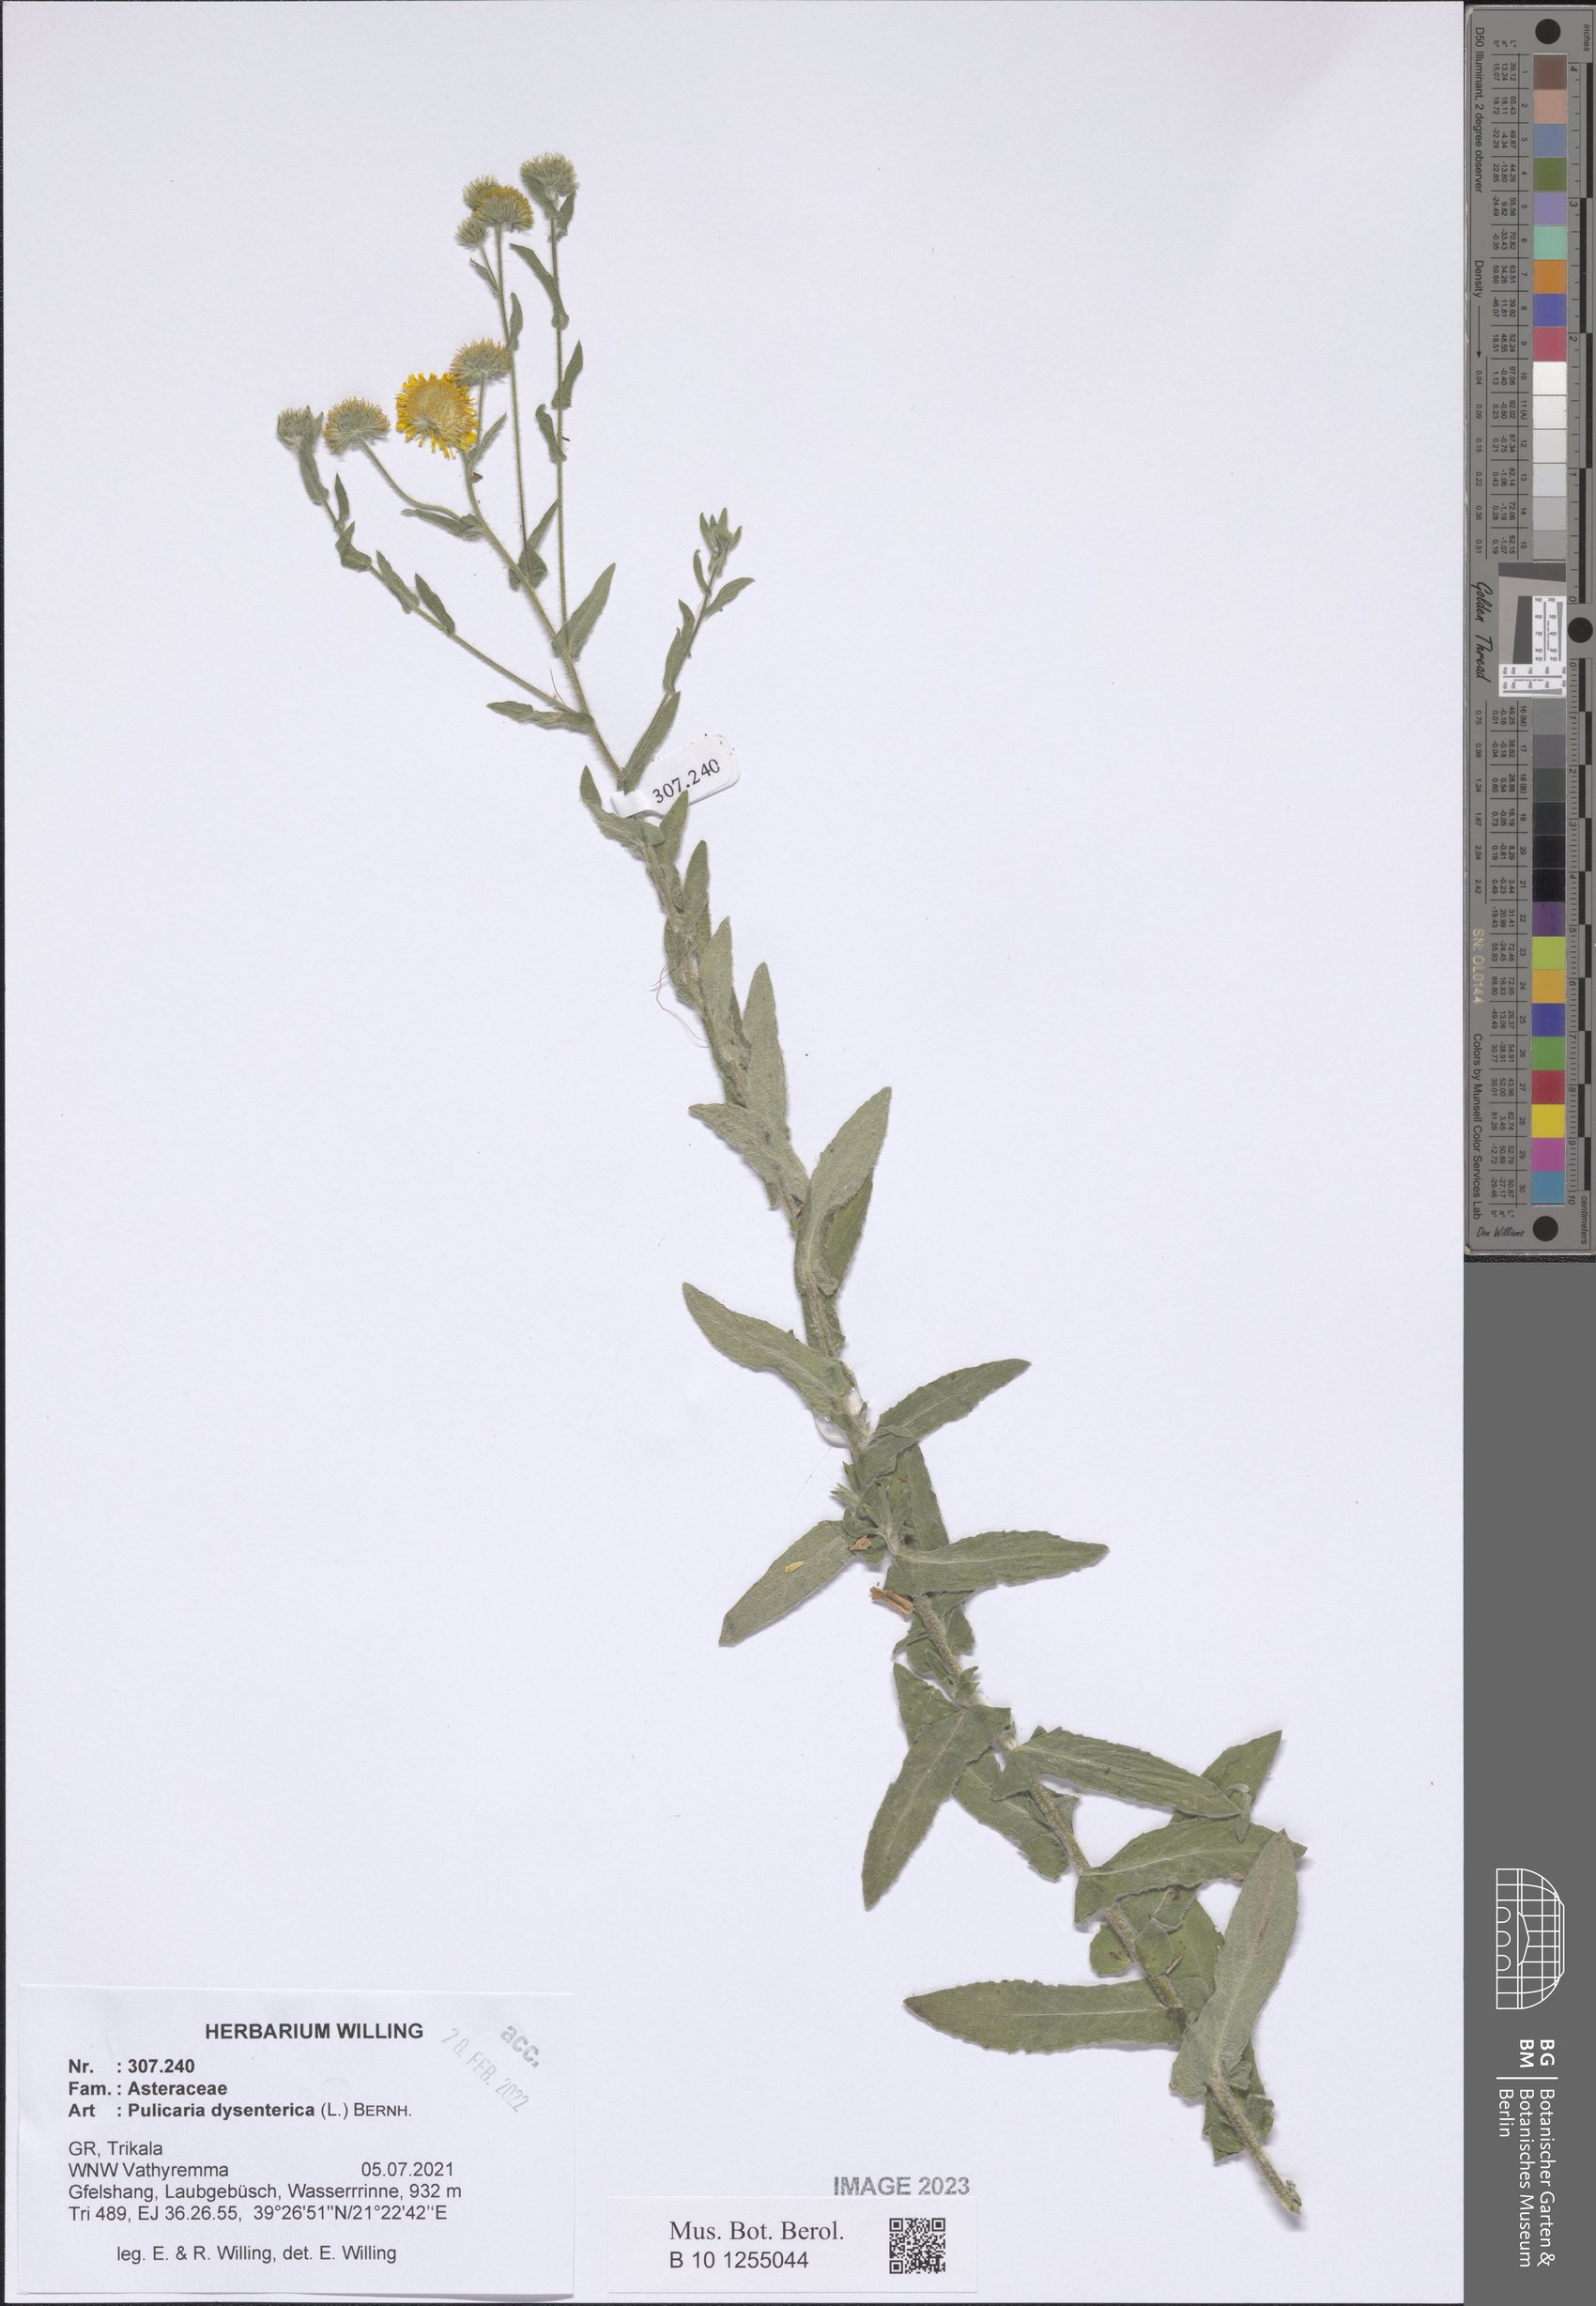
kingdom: Plantae
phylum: Tracheophyta
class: Magnoliopsida
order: Asterales
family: Asteraceae
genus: Pulicaria
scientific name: Pulicaria dysenterica
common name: Common fleabane
